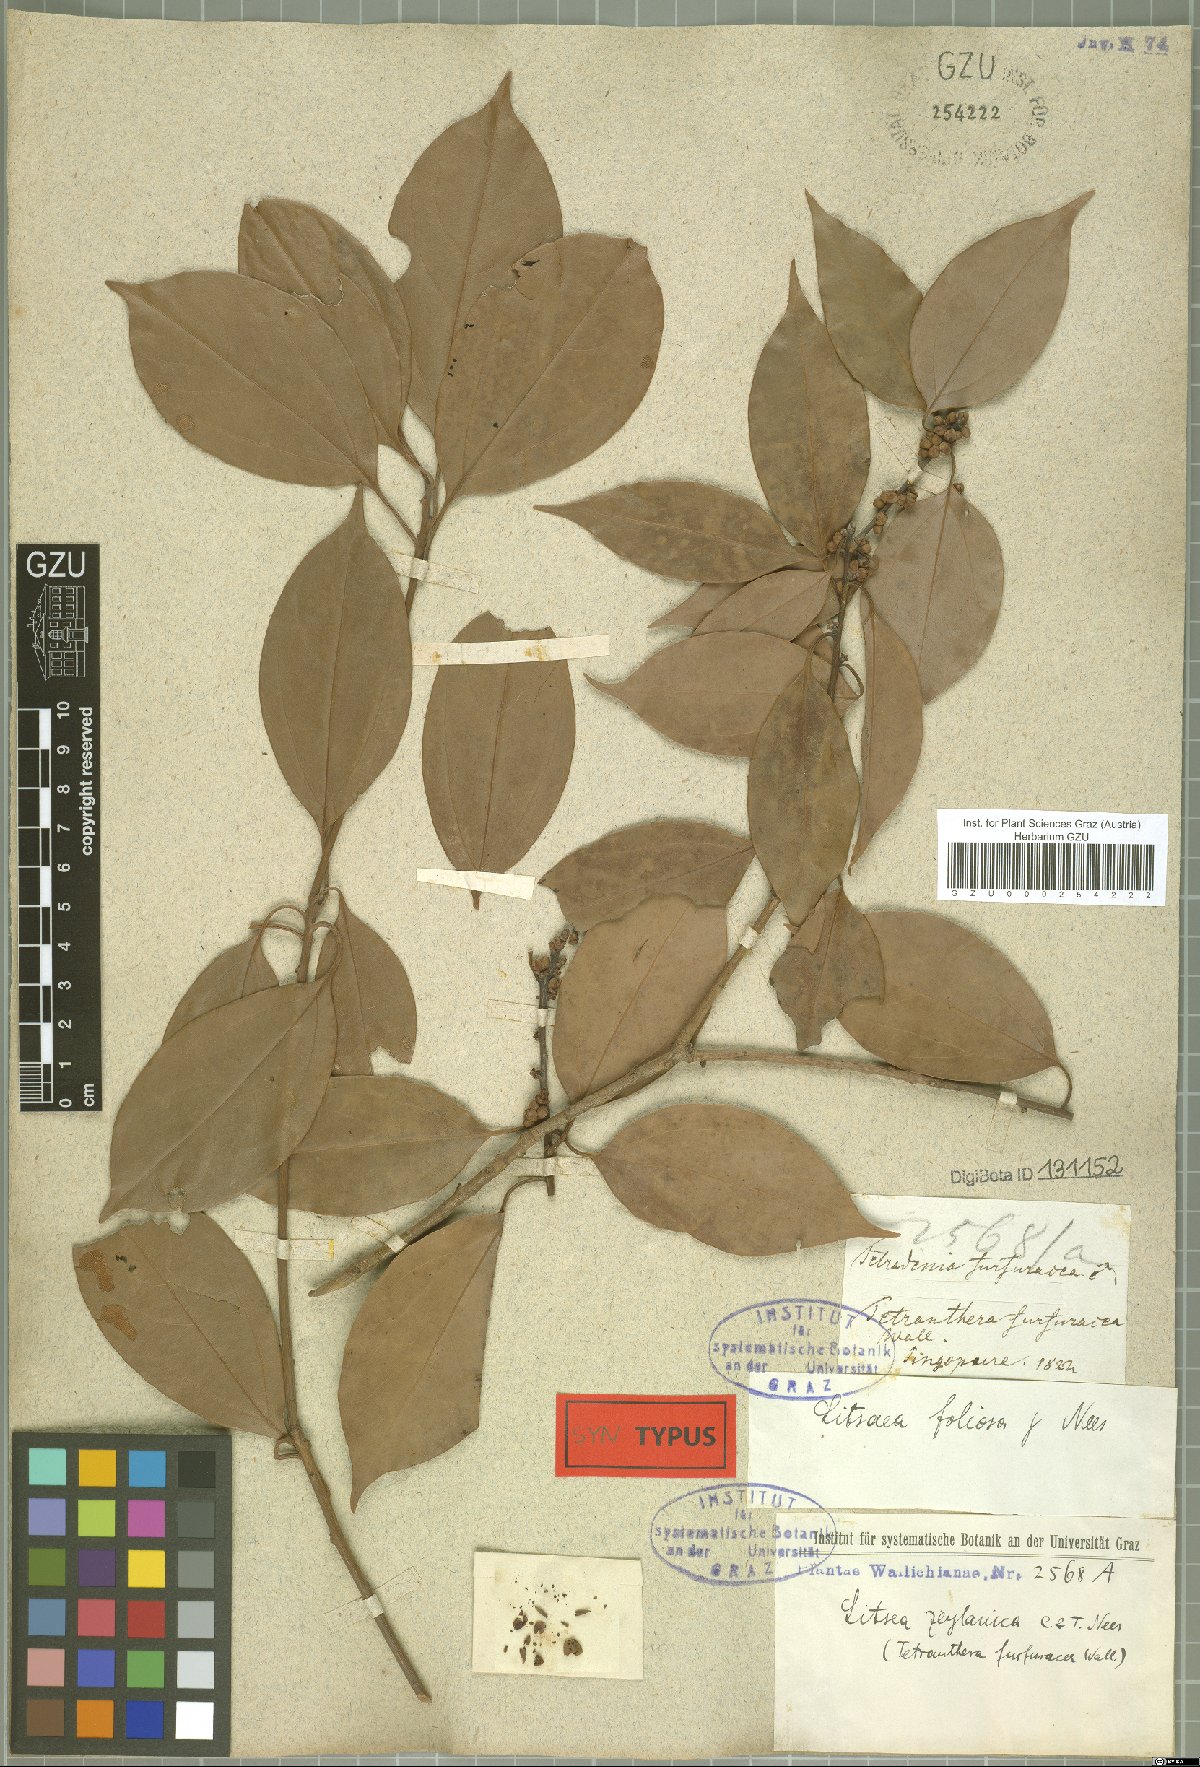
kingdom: Plantae
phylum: Tracheophyta
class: Magnoliopsida
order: Laurales
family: Lauraceae
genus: Neolitsea
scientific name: Neolitsea umbrosa
